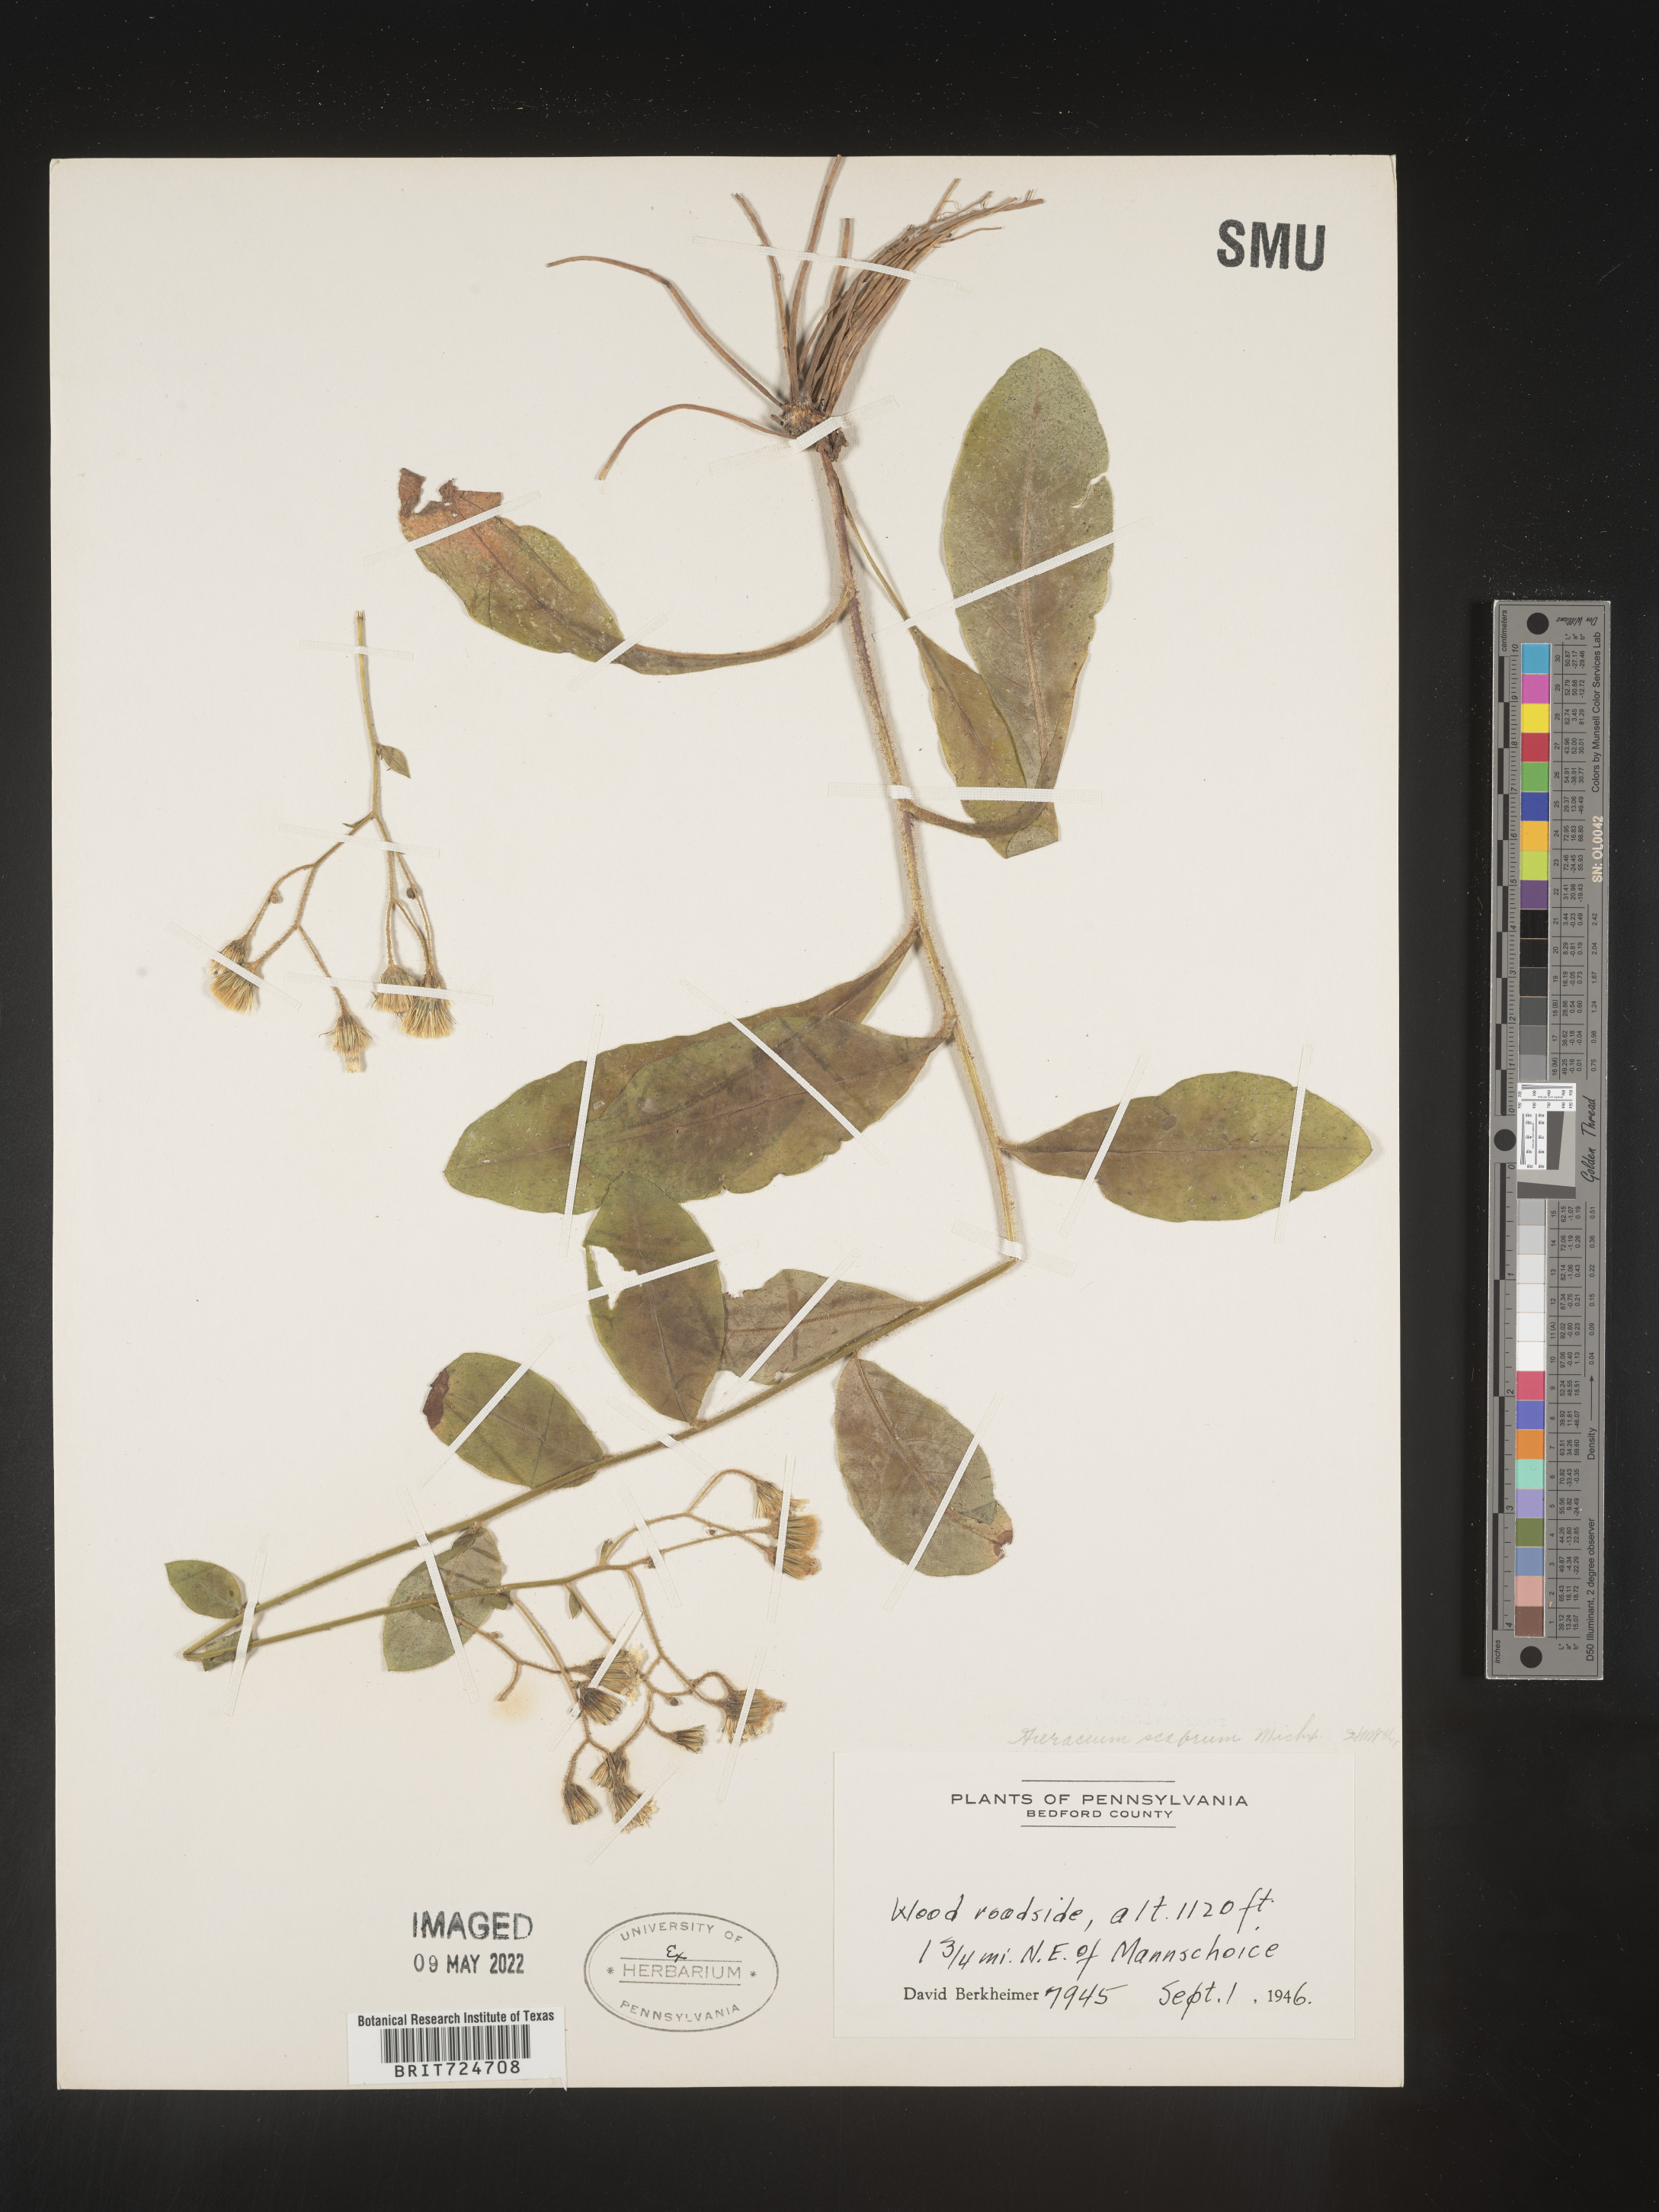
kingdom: Plantae
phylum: Tracheophyta
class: Magnoliopsida
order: Asterales
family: Asteraceae
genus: Hieracium
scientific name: Hieracium scabrum
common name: Rough hawkweed
